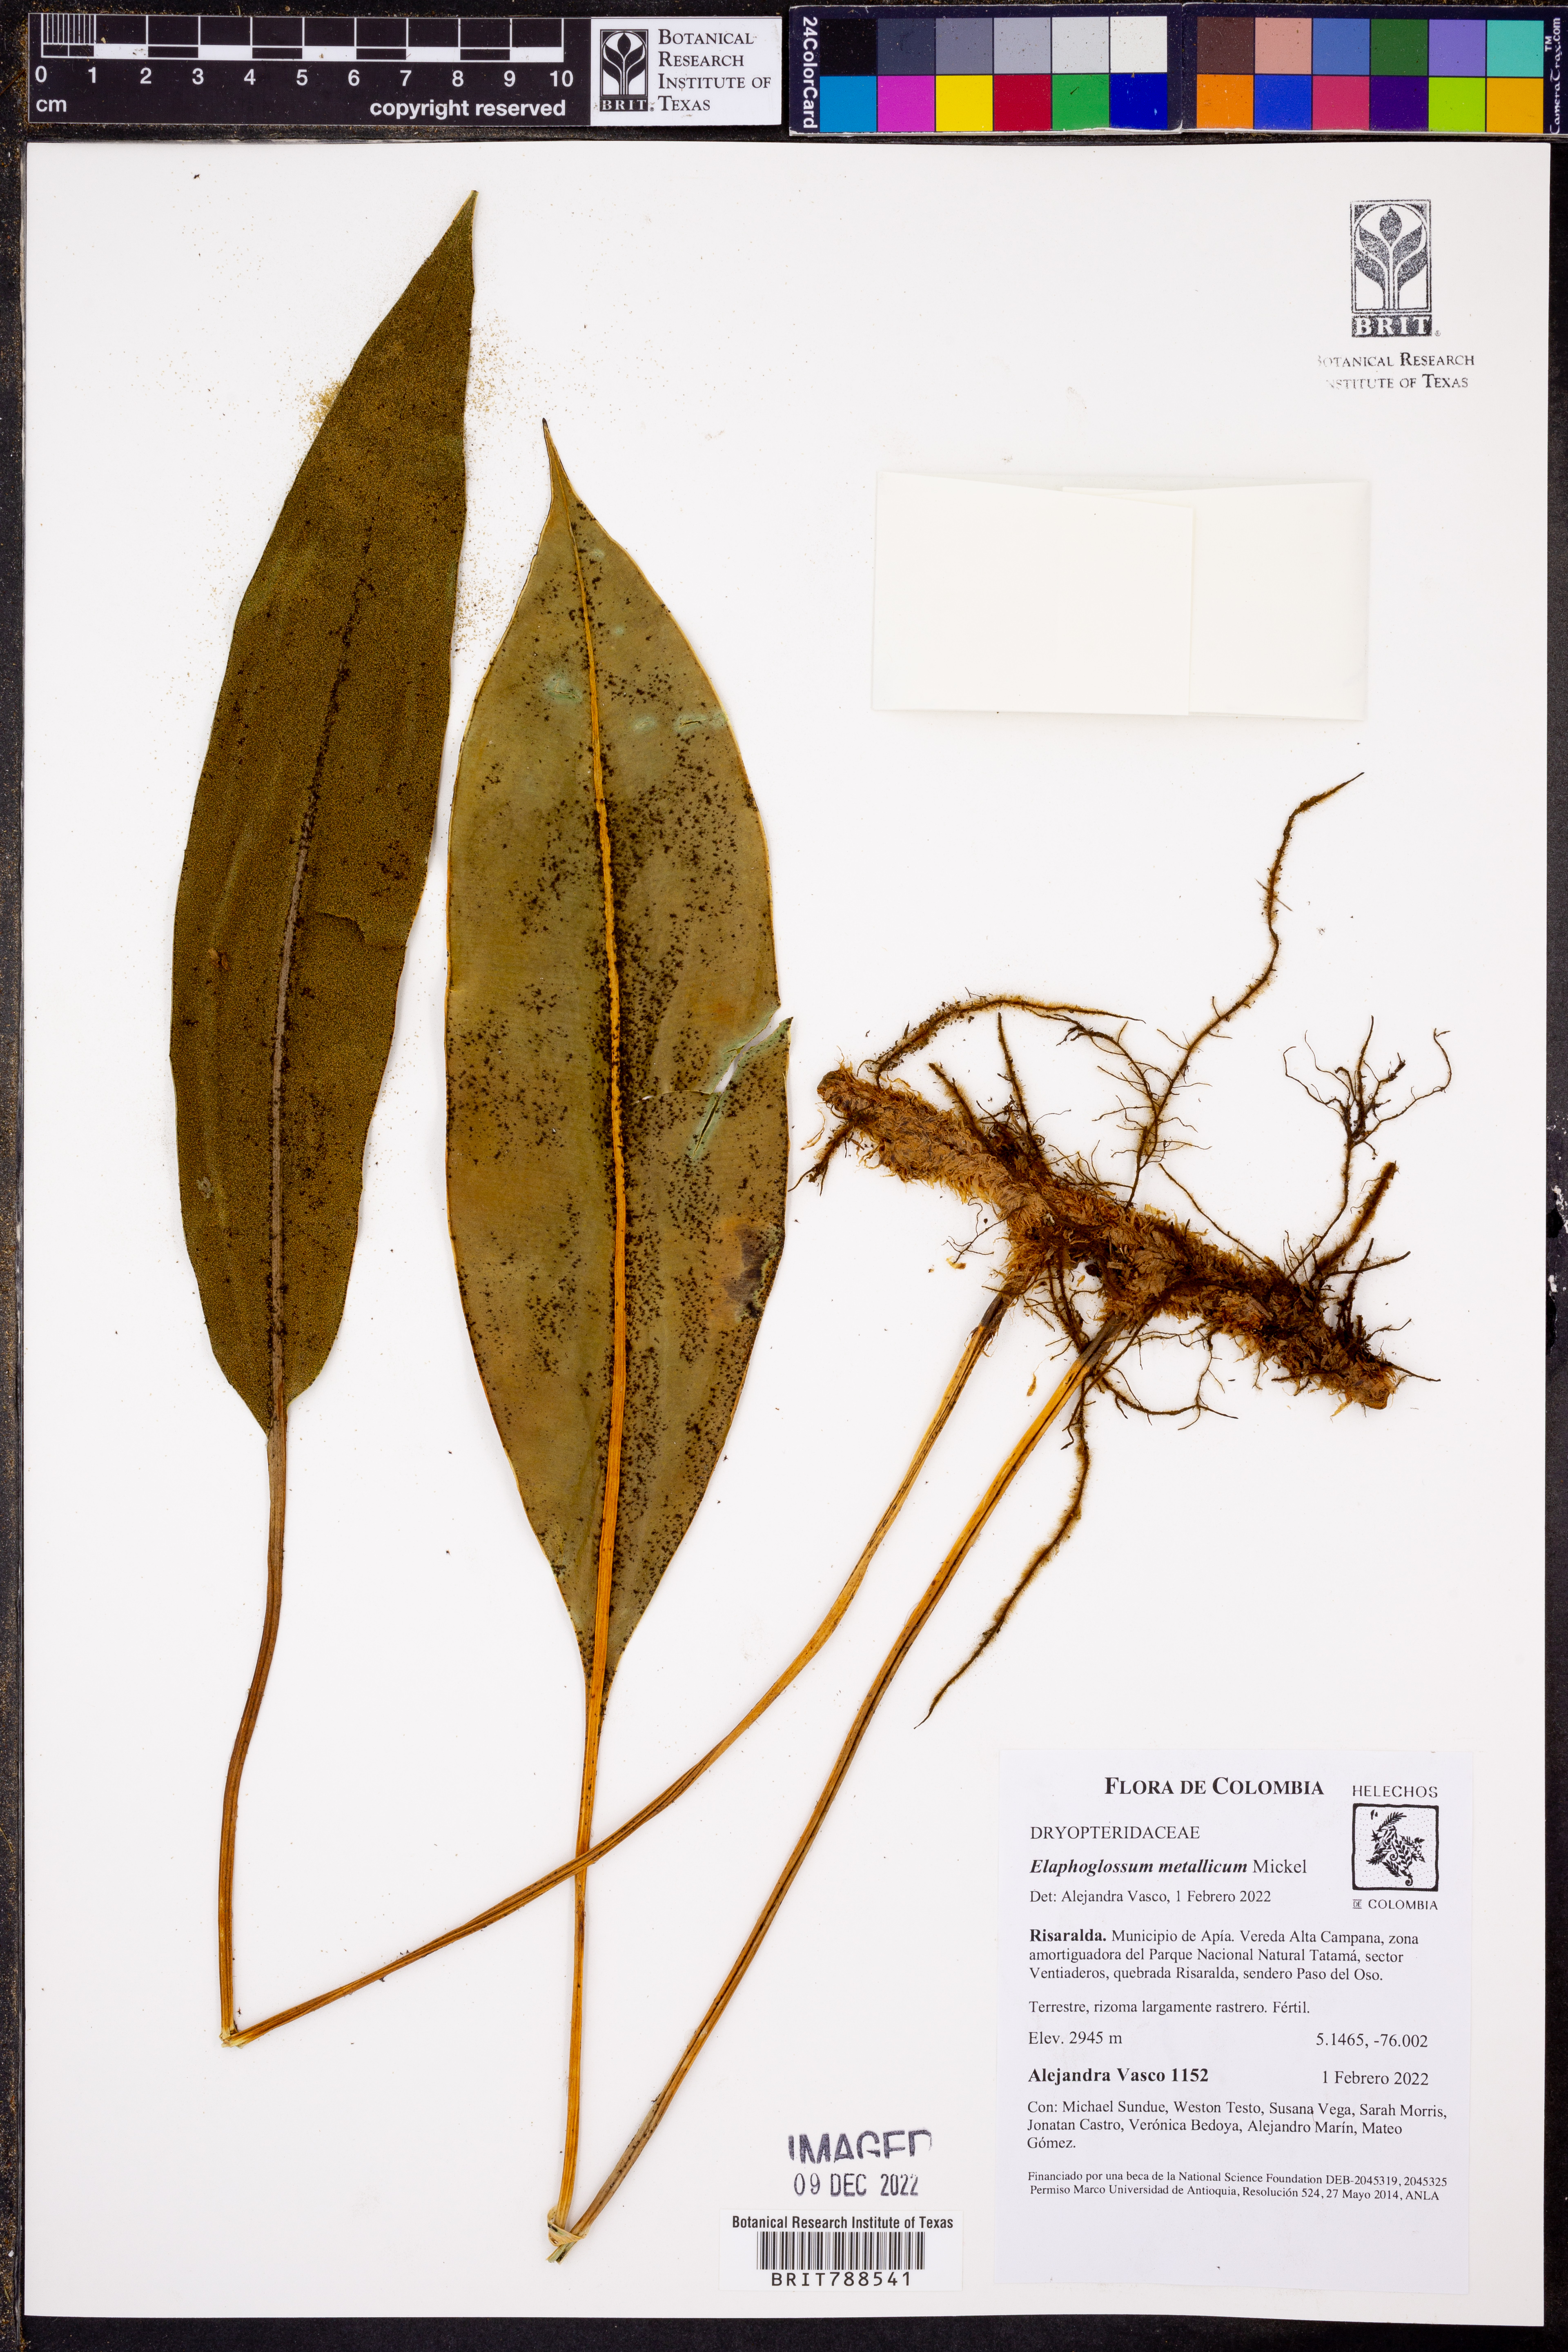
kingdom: Plantae
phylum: Tracheophyta
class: Polypodiopsida
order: Polypodiales
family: Dryopteridaceae
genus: Elaphoglossum
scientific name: Elaphoglossum metallicum
